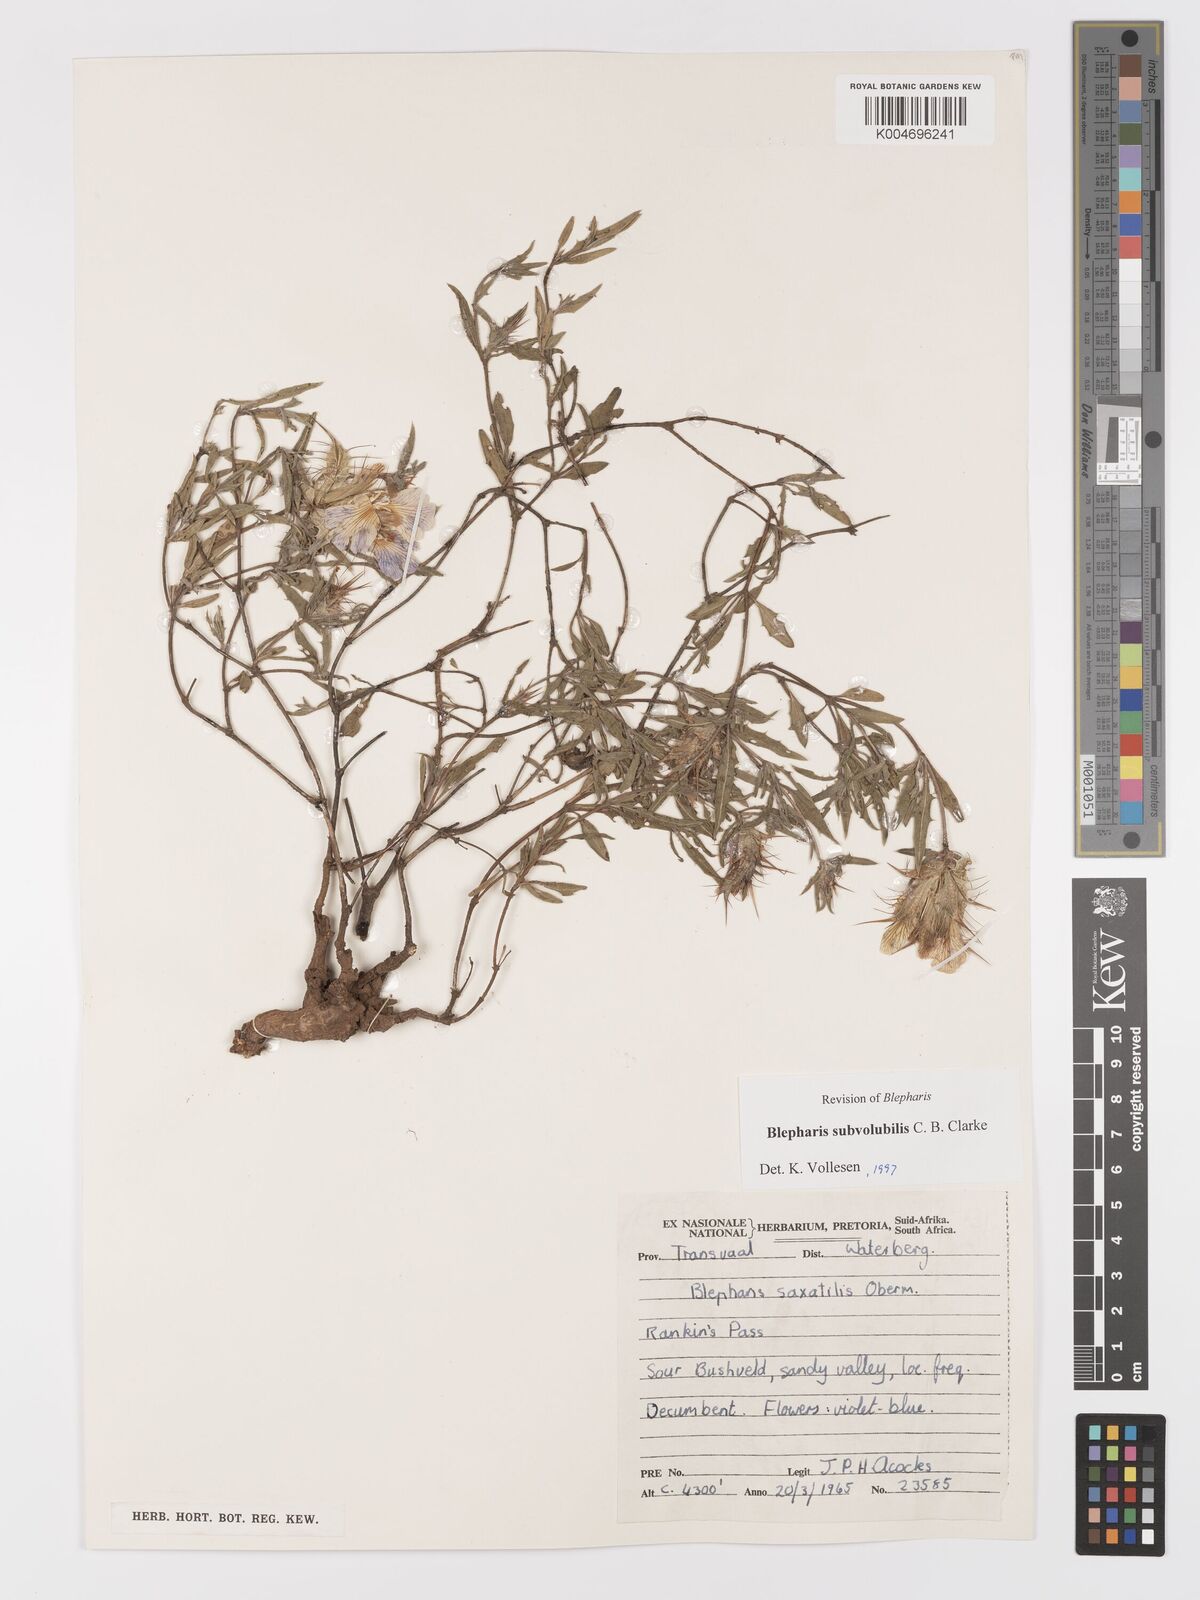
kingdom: Plantae
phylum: Tracheophyta
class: Magnoliopsida
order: Lamiales
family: Acanthaceae
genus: Blepharis
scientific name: Blepharis subvolubilis
